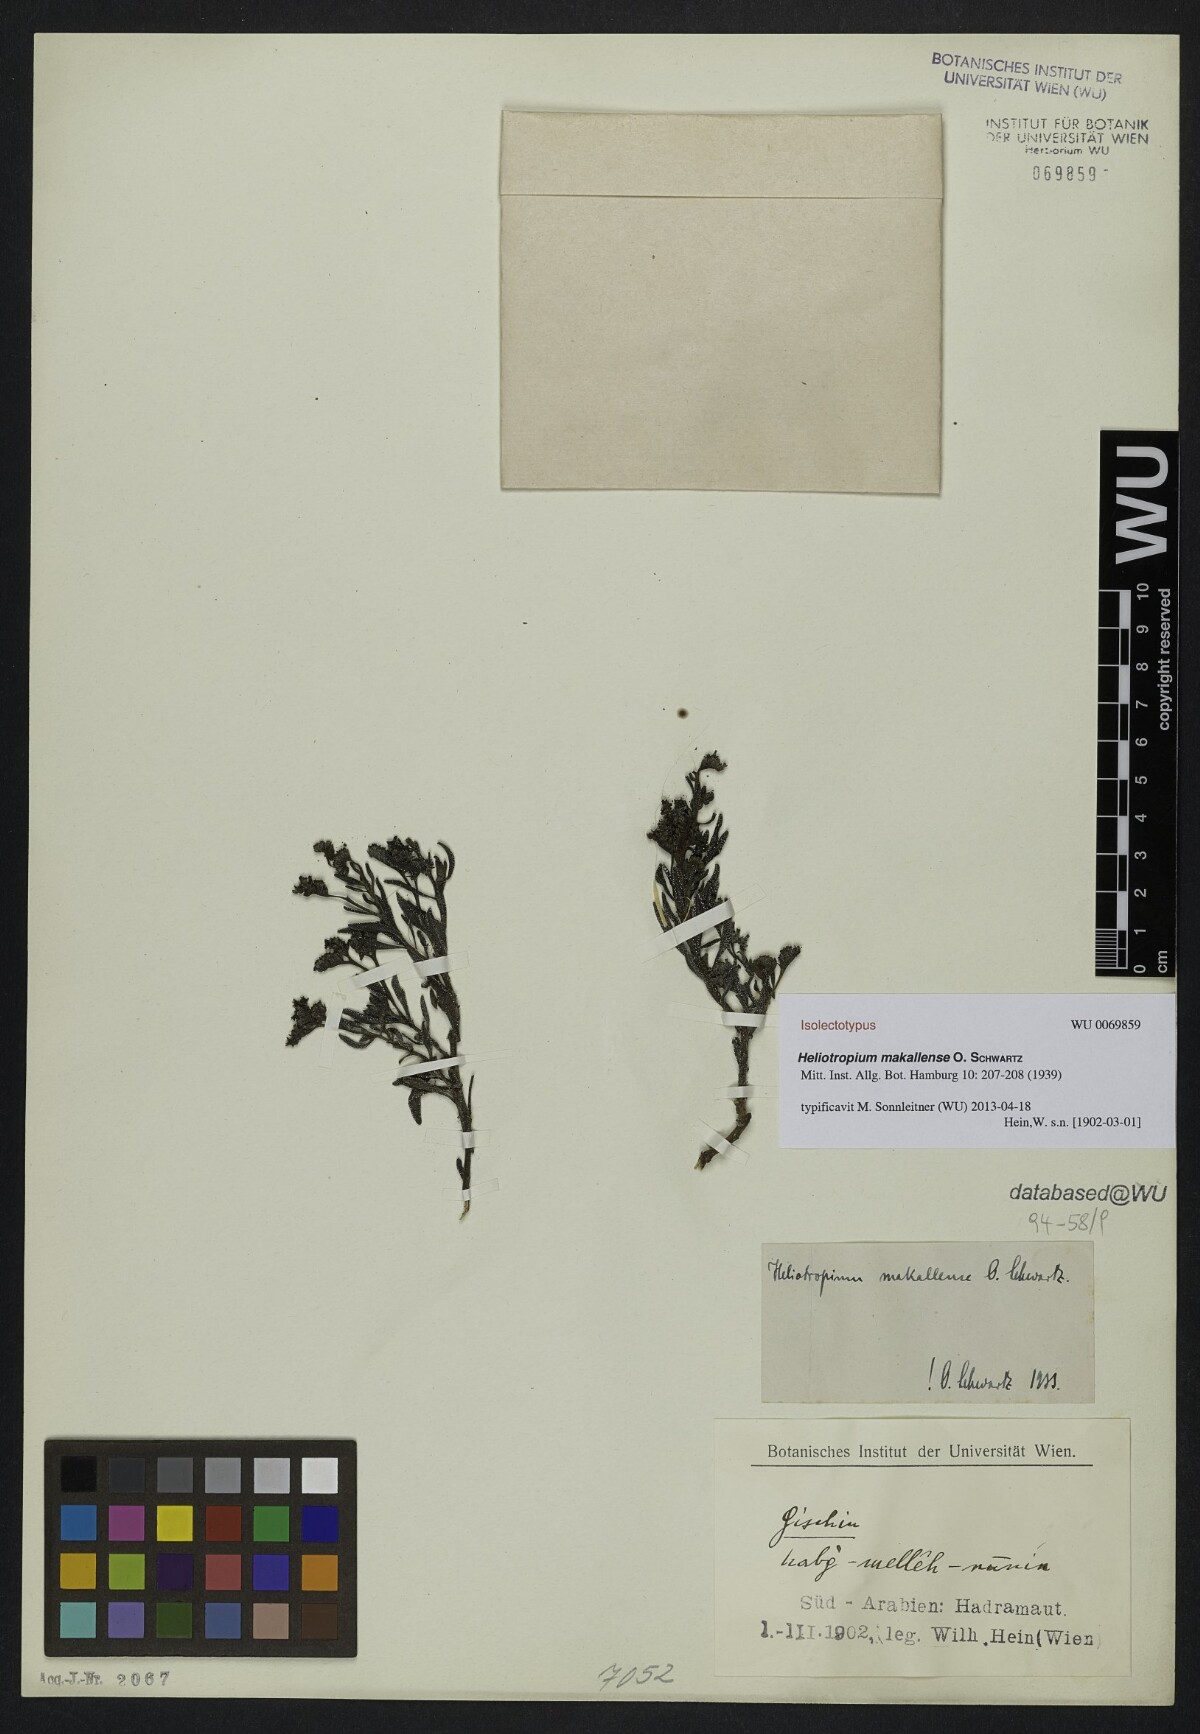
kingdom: Plantae
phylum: Tracheophyta
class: Magnoliopsida
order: Boraginales
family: Heliotropiaceae
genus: Heliotropium
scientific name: Heliotropium bacciferum
